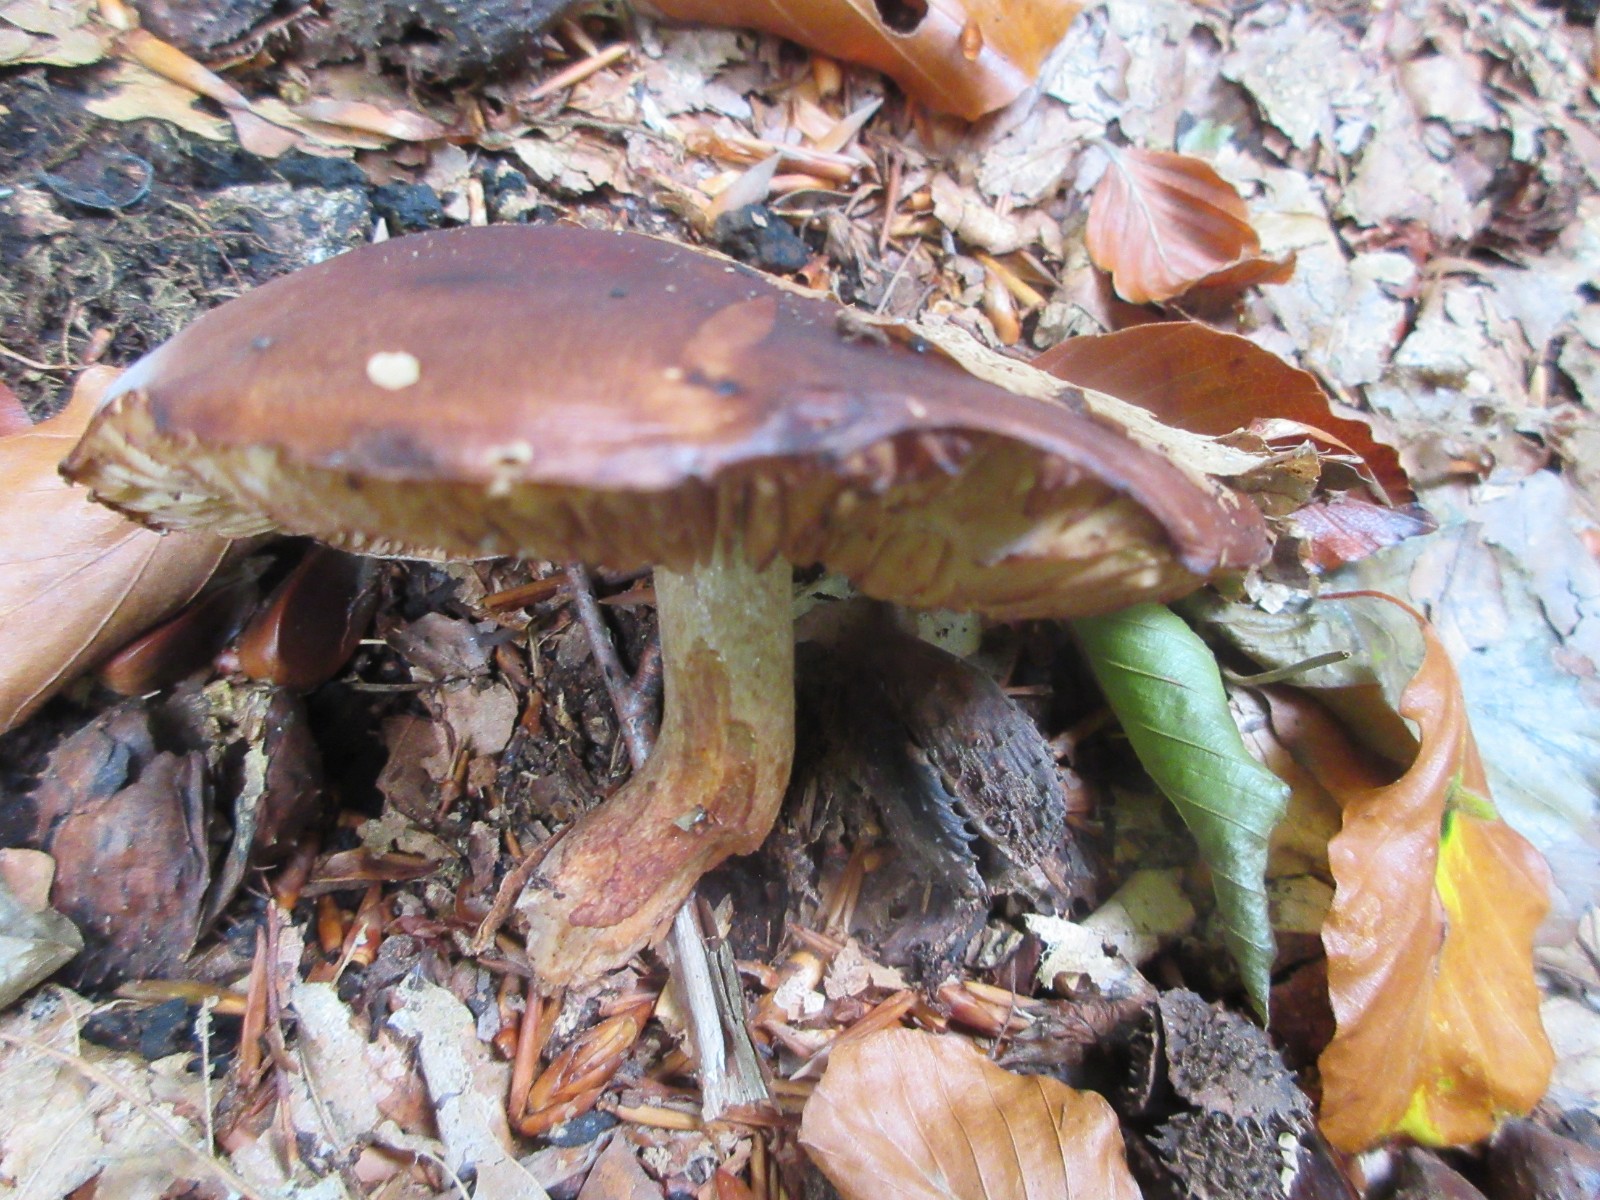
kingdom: Fungi
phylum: Basidiomycota
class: Agaricomycetes
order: Agaricales
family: Tricholomataceae
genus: Tricholoma
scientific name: Tricholoma ustale
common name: sveden ridderhat
